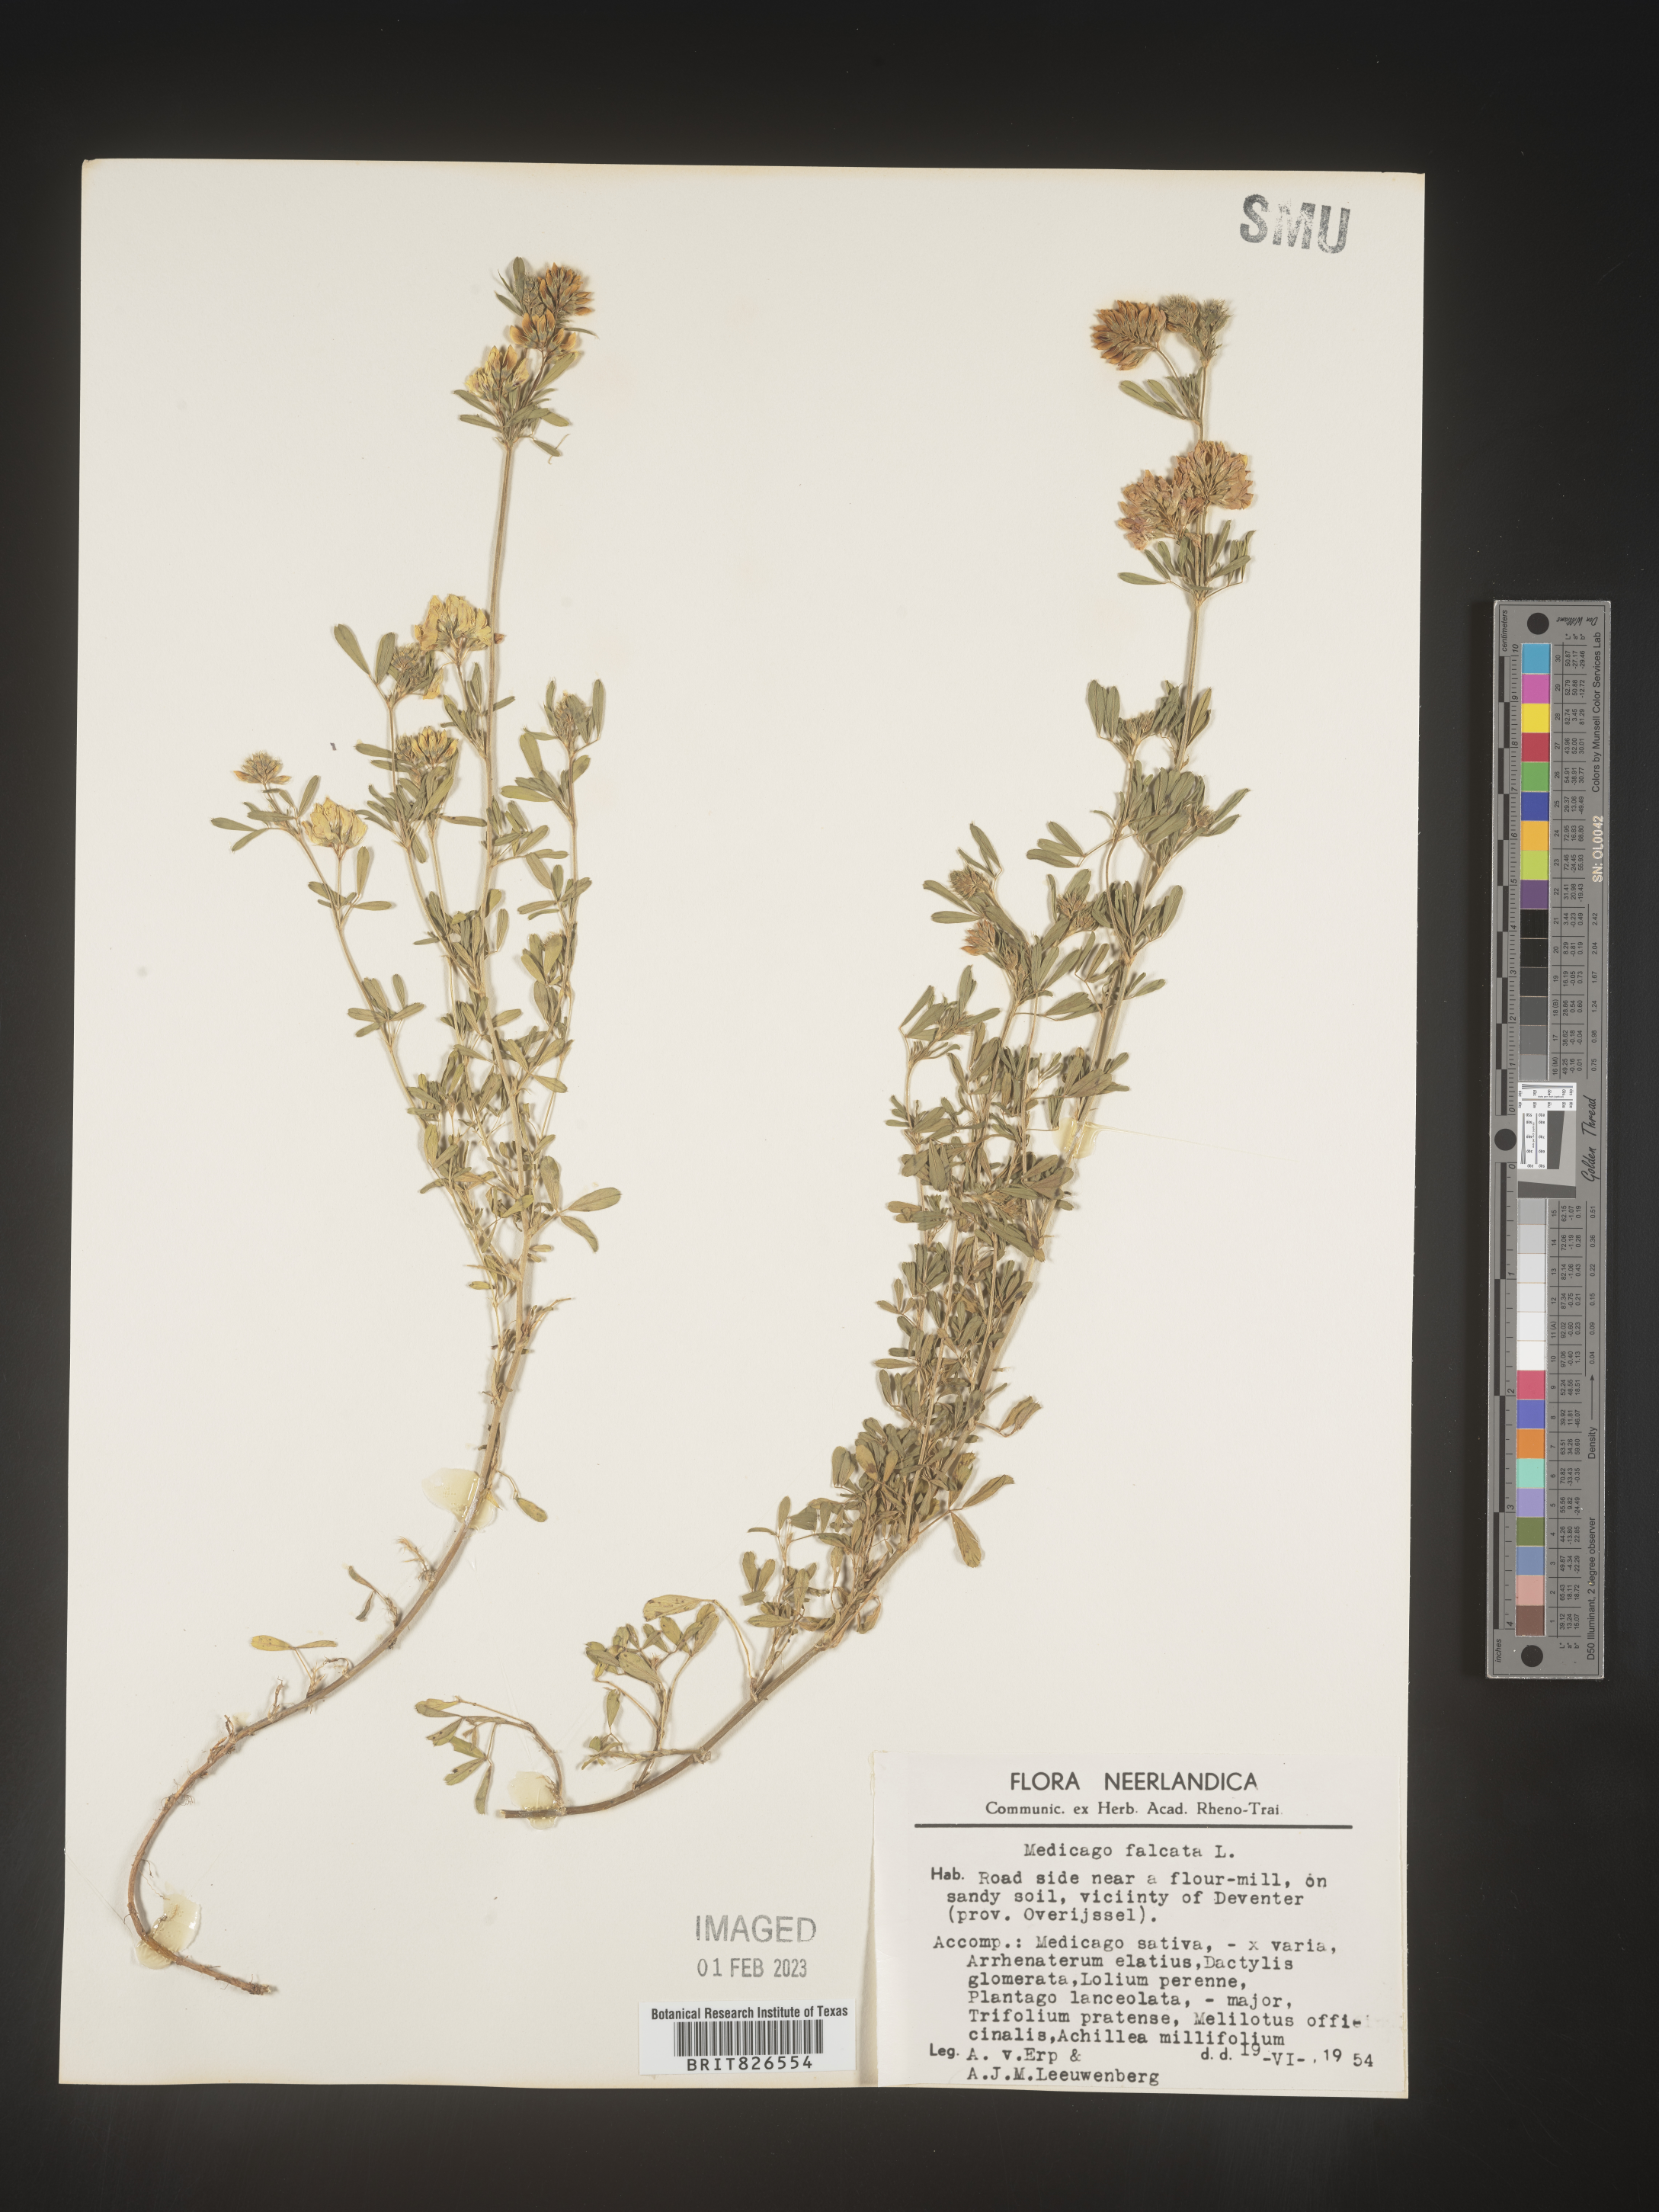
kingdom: Plantae
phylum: Tracheophyta
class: Magnoliopsida
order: Fabales
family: Fabaceae
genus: Medicago
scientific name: Medicago
